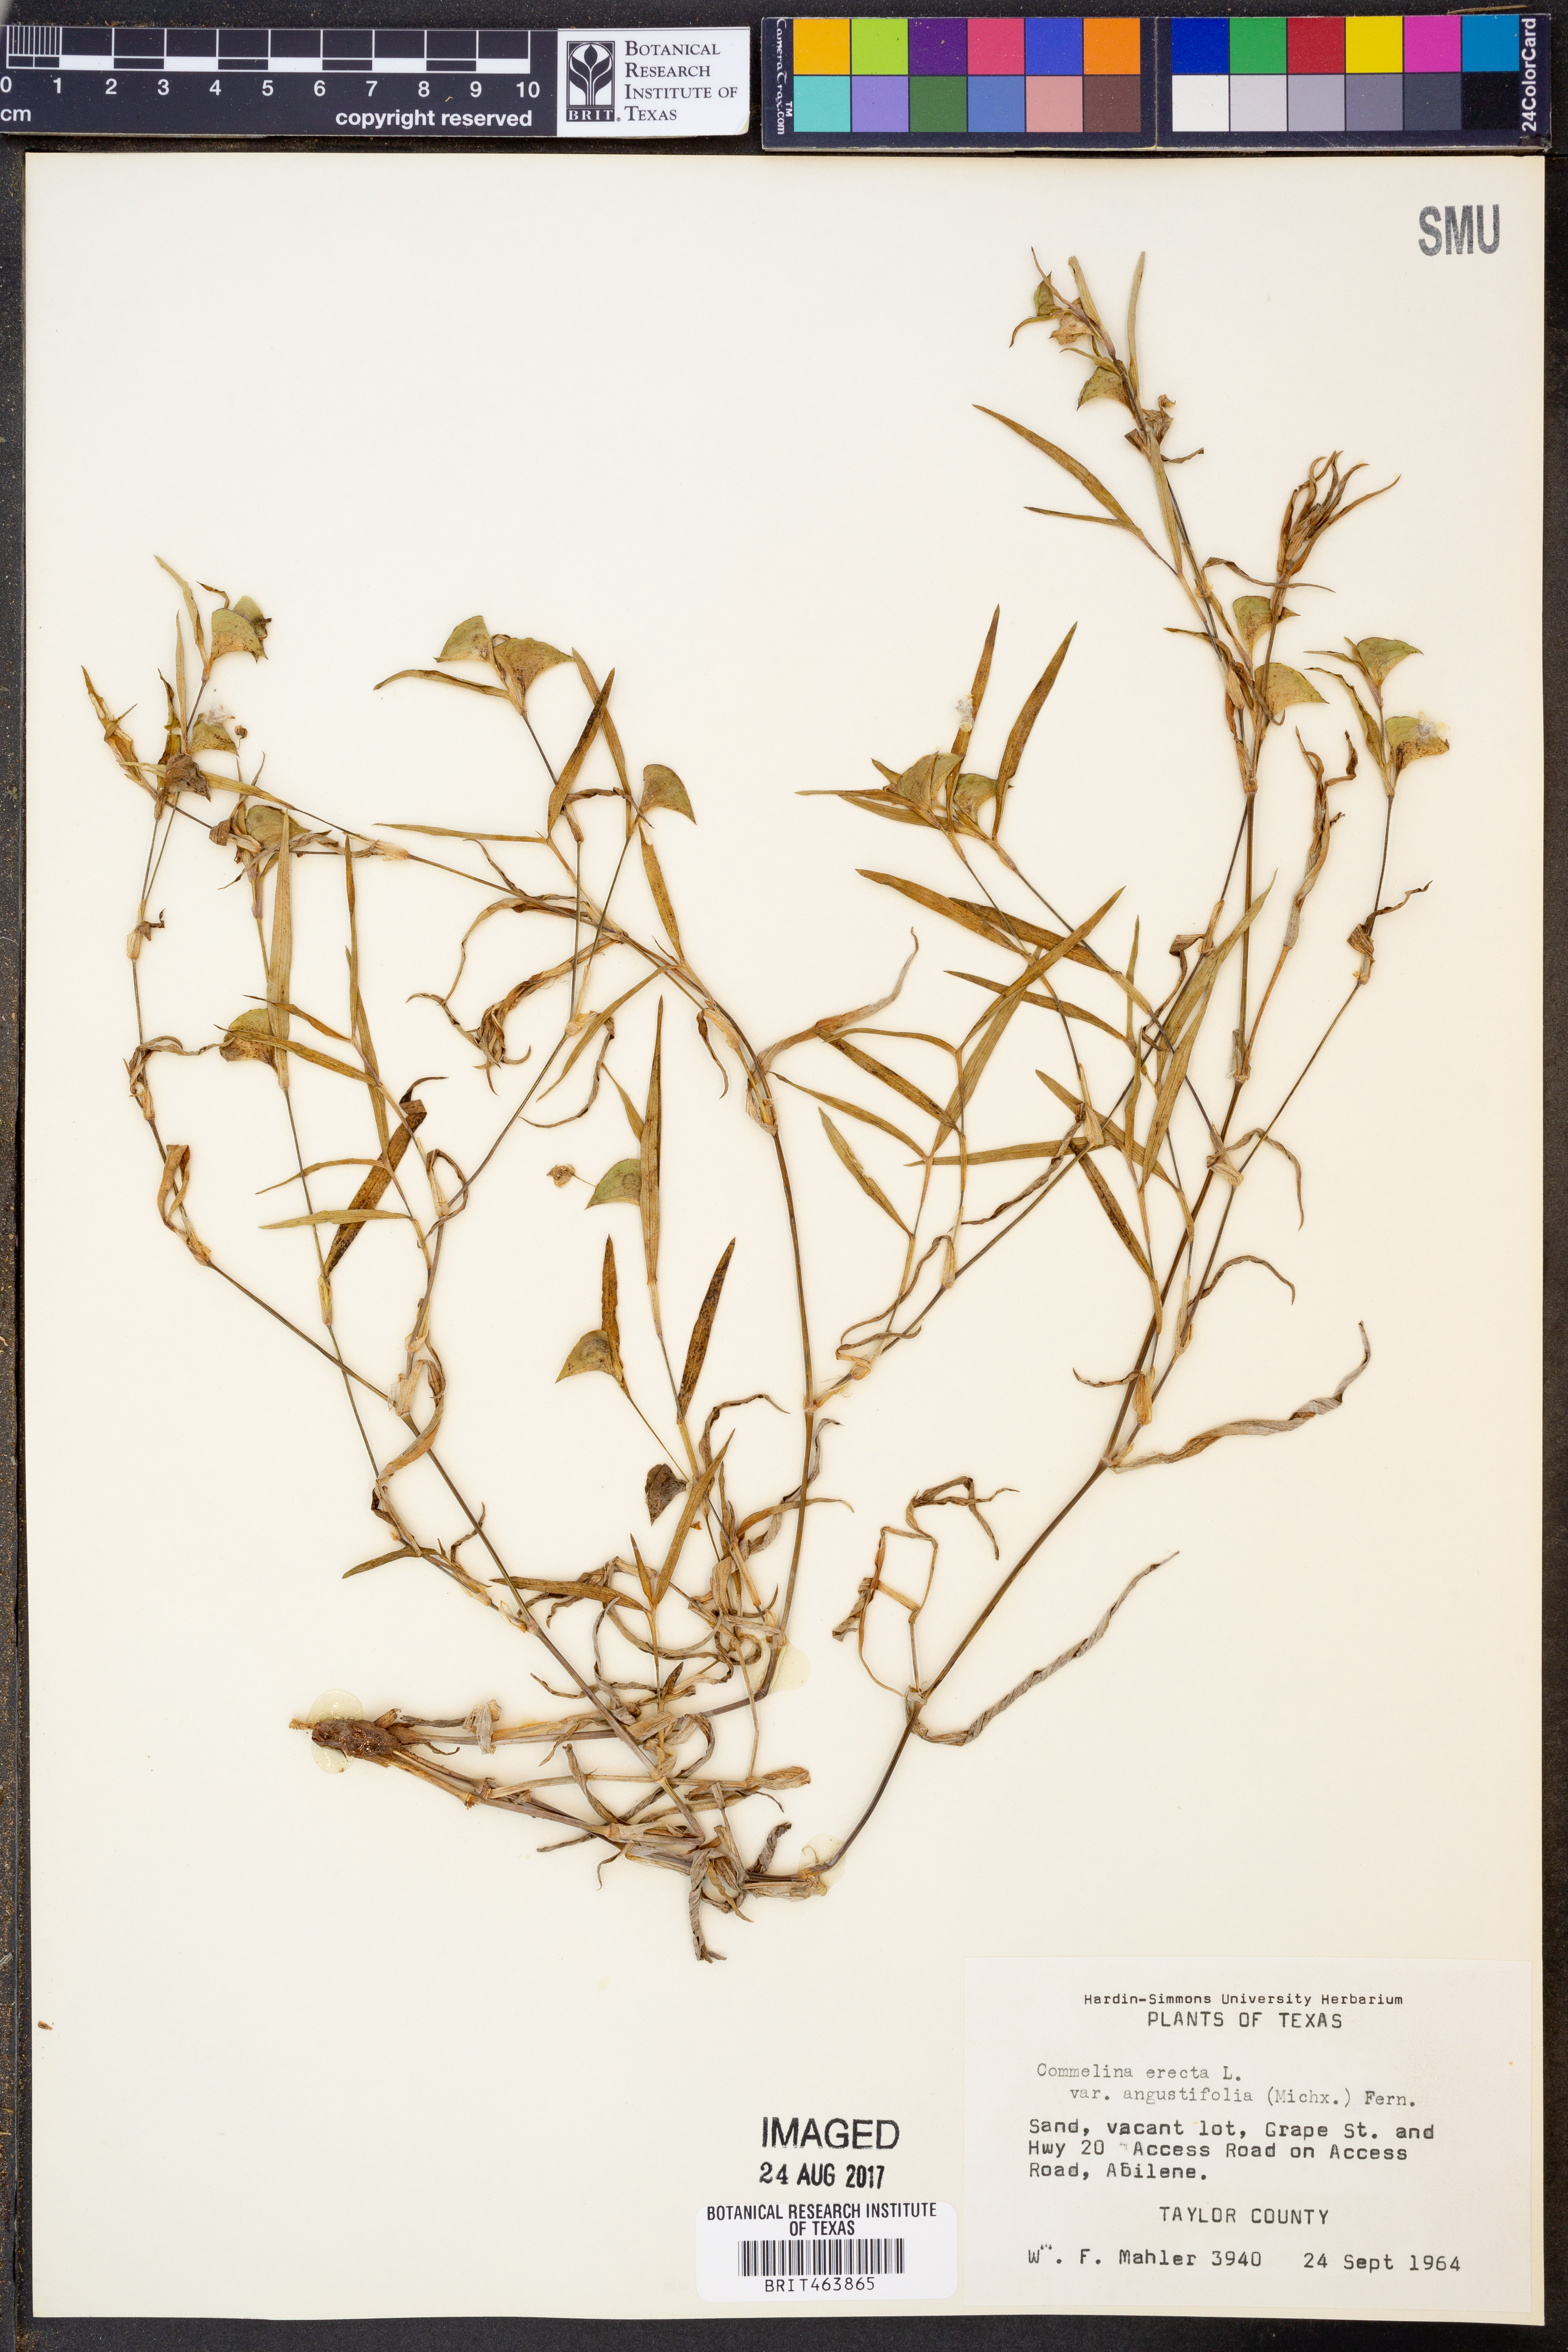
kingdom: Plantae
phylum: Tracheophyta
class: Liliopsida
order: Commelinales
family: Commelinaceae
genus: Commelina
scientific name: Commelina erecta
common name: Blousel blommetjie
